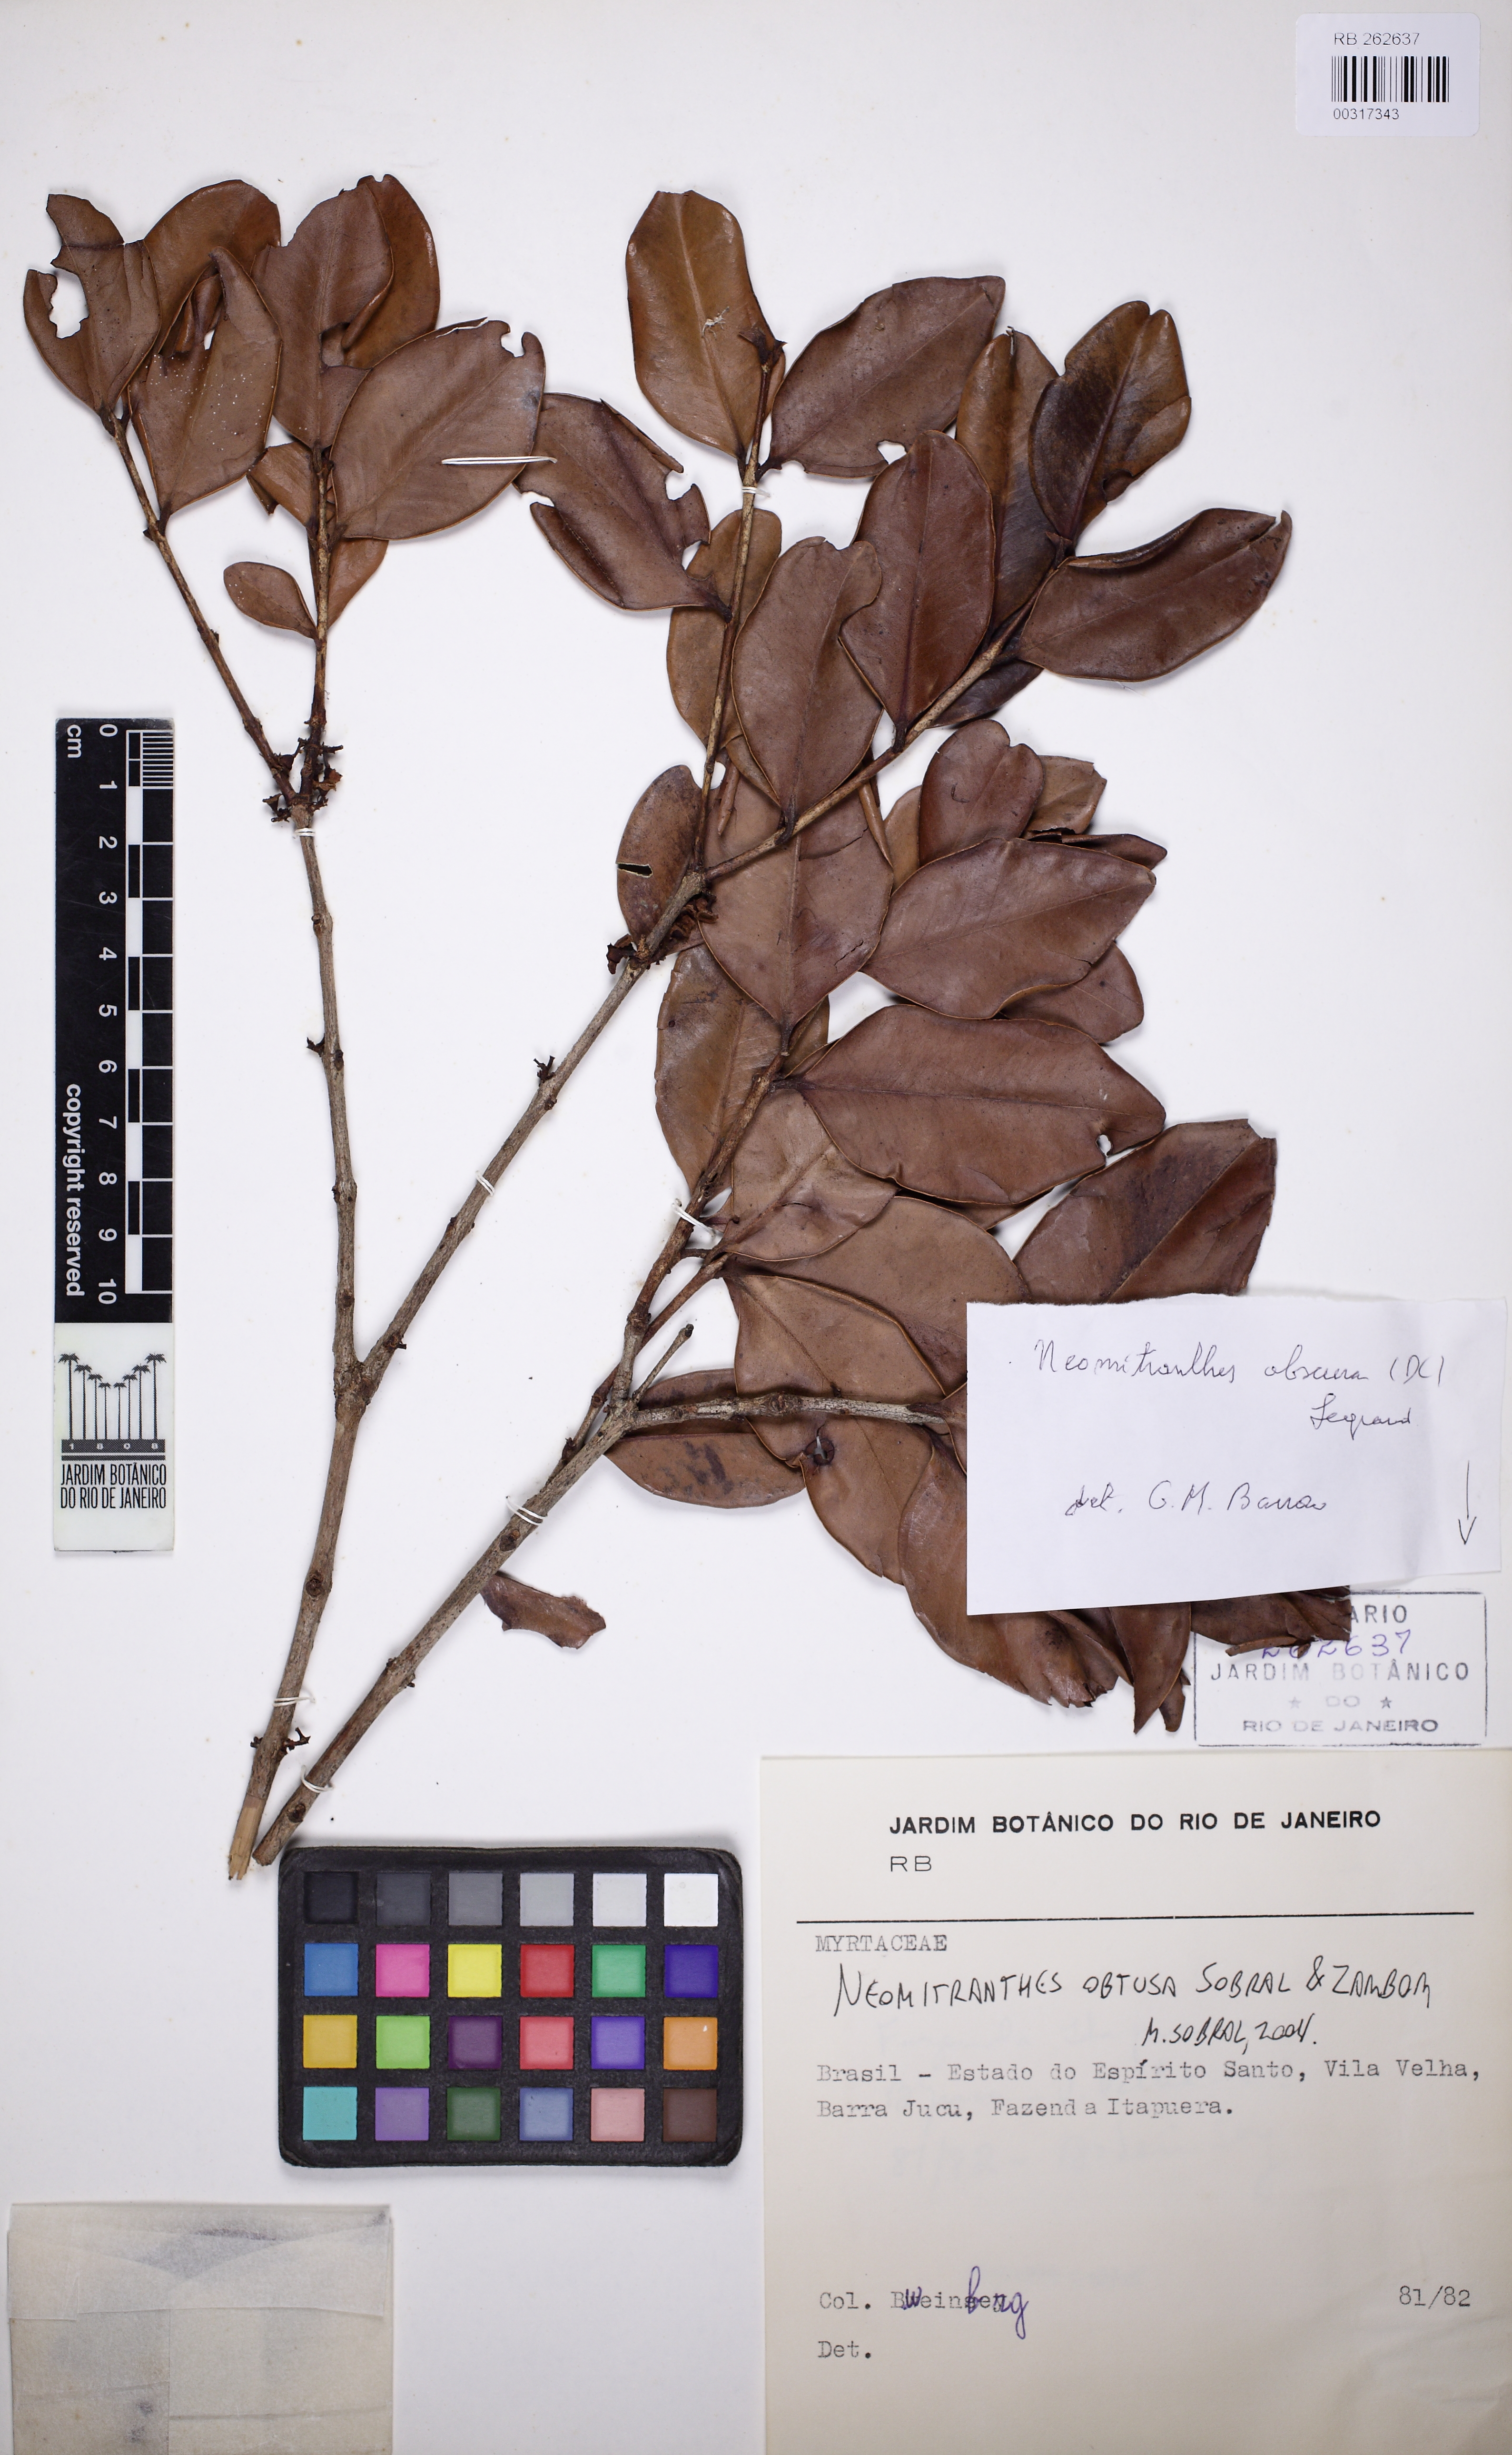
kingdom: Plantae
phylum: Tracheophyta
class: Magnoliopsida
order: Myrtales
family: Myrtaceae
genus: Neomitranthes
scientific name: Neomitranthes obtusa
